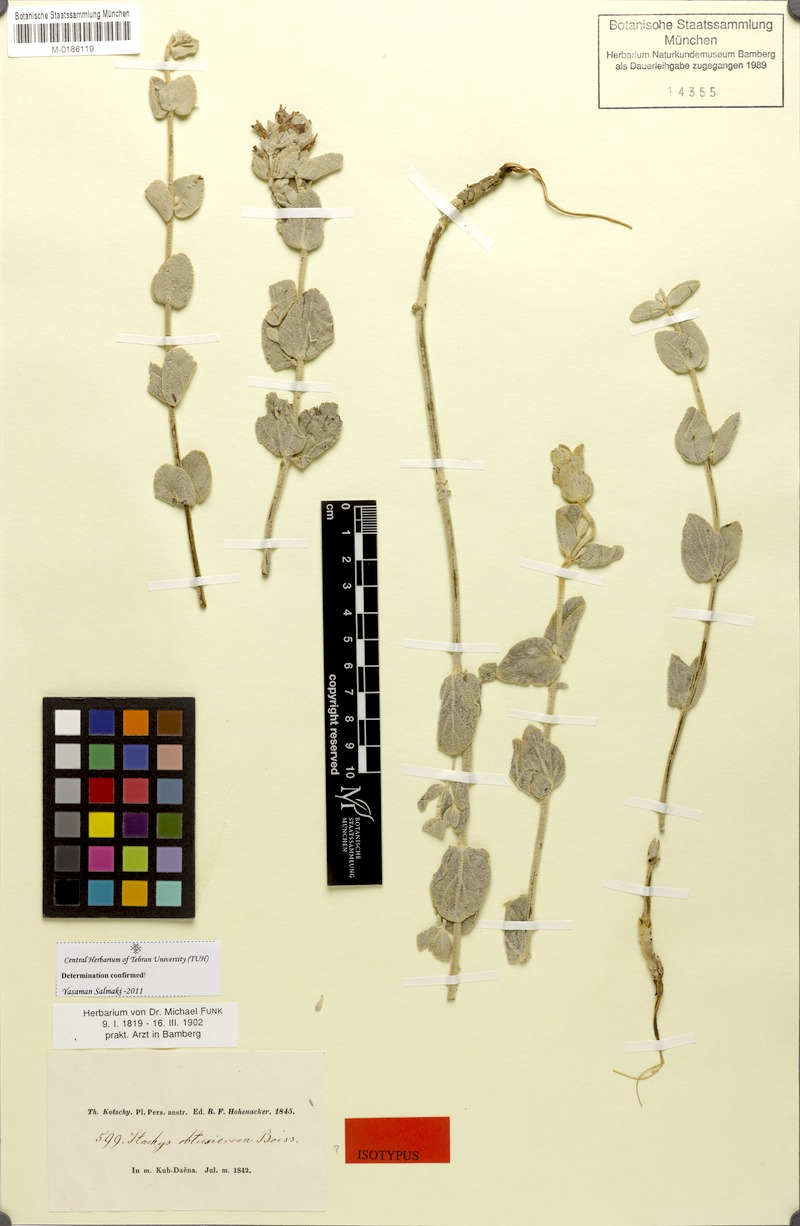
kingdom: Plantae
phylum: Tracheophyta
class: Magnoliopsida
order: Lamiales
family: Lamiaceae
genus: Stachys
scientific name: Stachys obtusicrena
